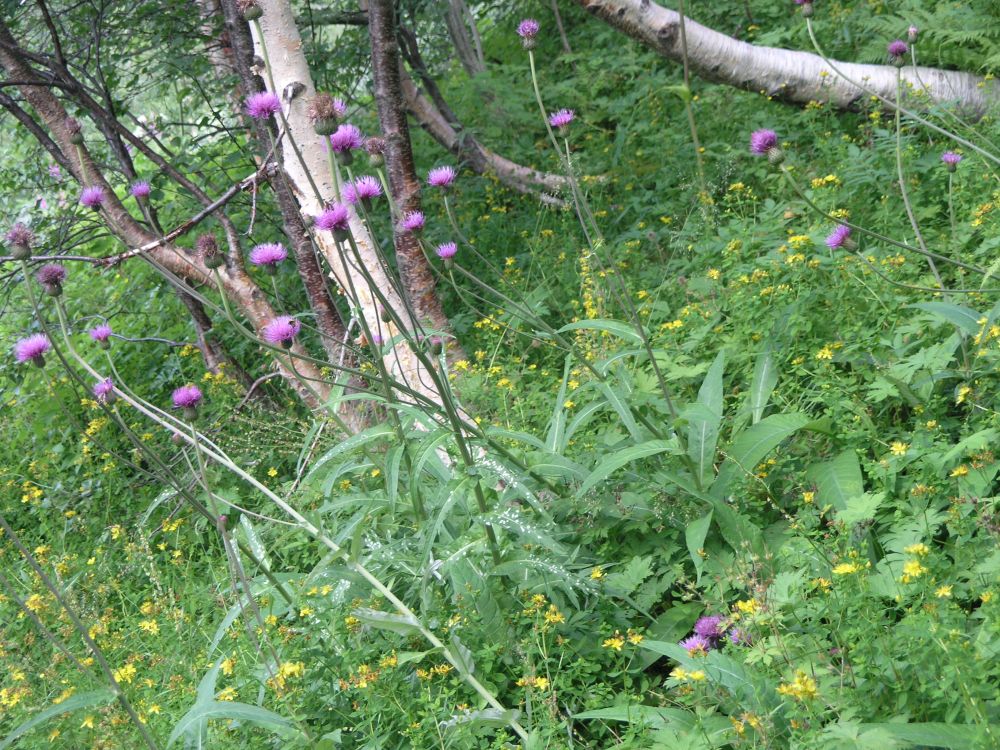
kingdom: Plantae
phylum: Tracheophyta
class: Magnoliopsida
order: Asterales
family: Asteraceae
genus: Cirsium
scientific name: Cirsium heterophyllum
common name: Melancholy thistle
